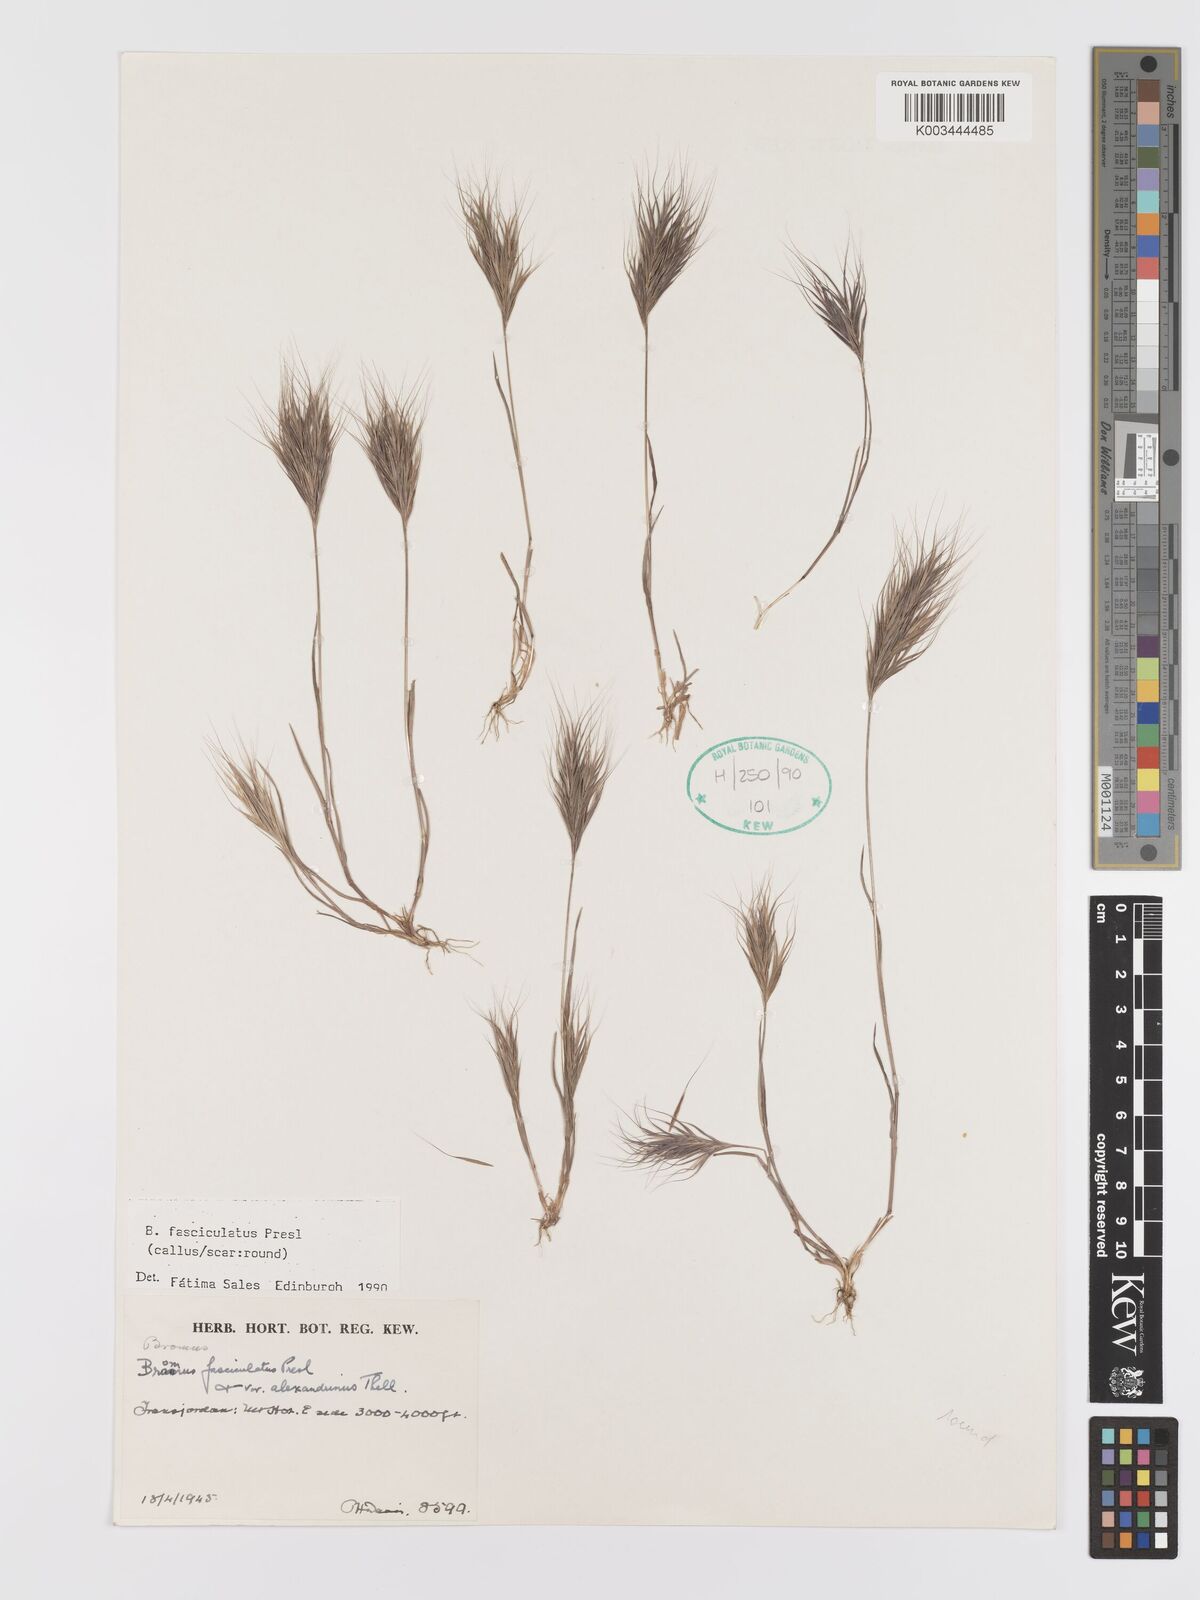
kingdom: Plantae
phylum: Tracheophyta
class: Liliopsida
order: Poales
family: Poaceae
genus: Bromus
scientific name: Bromus fasciculatus
